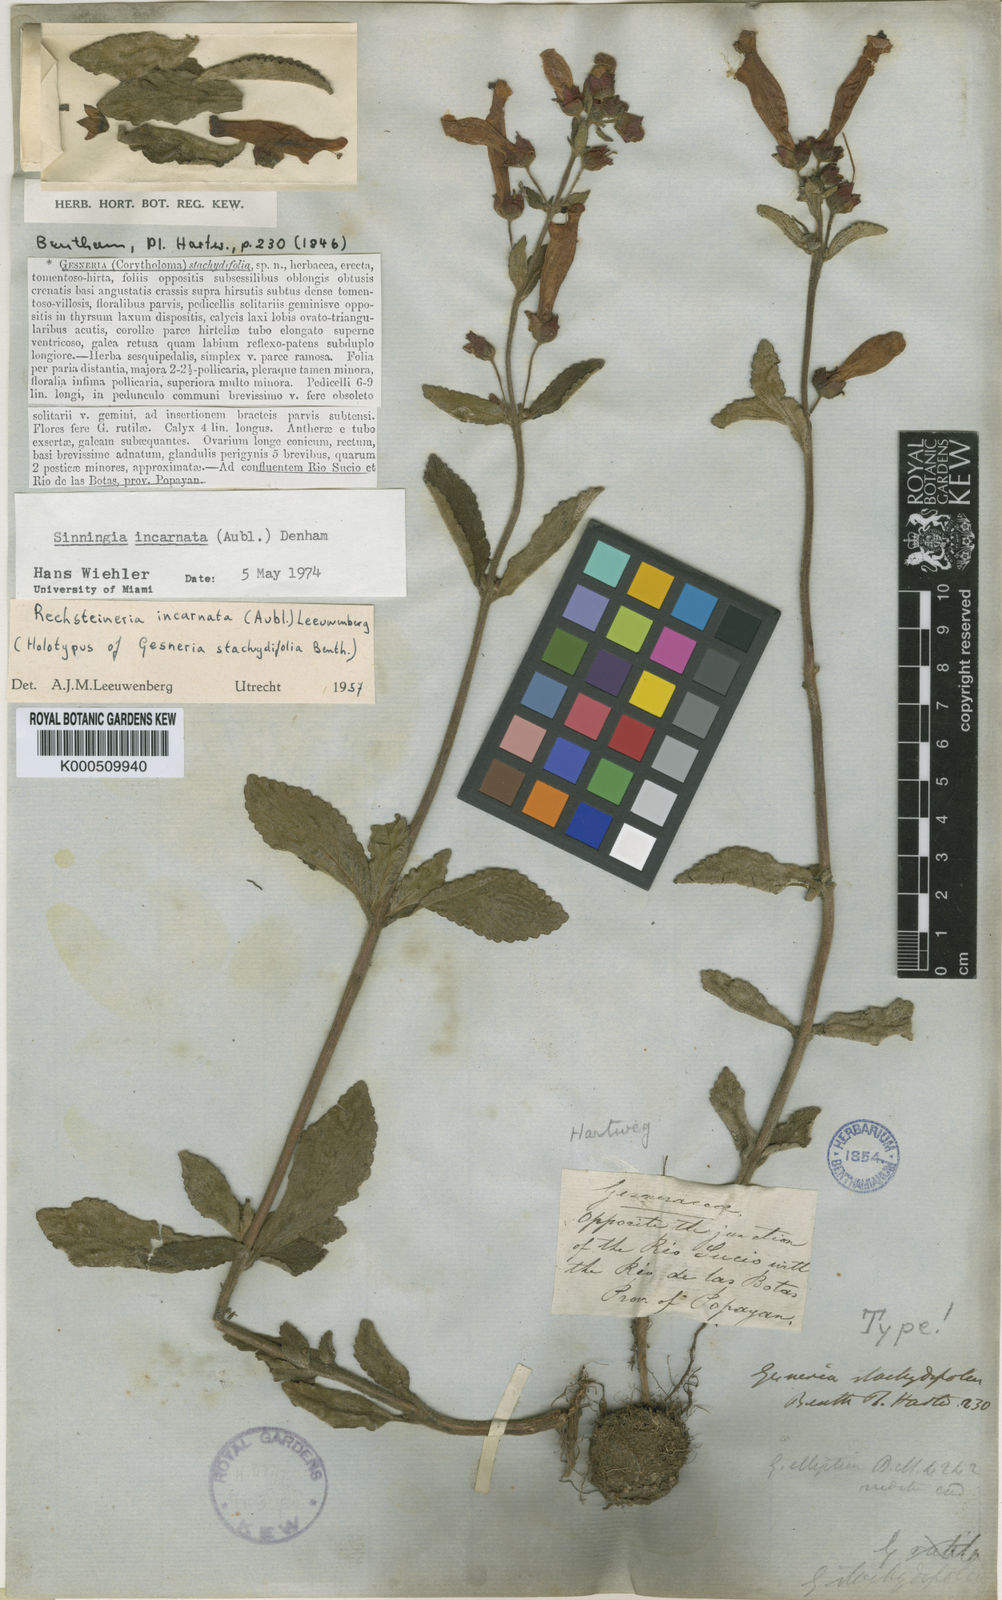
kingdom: Plantae
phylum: Tracheophyta
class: Magnoliopsida
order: Lamiales
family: Gesneriaceae
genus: Sinningia
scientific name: Sinningia incarnata
